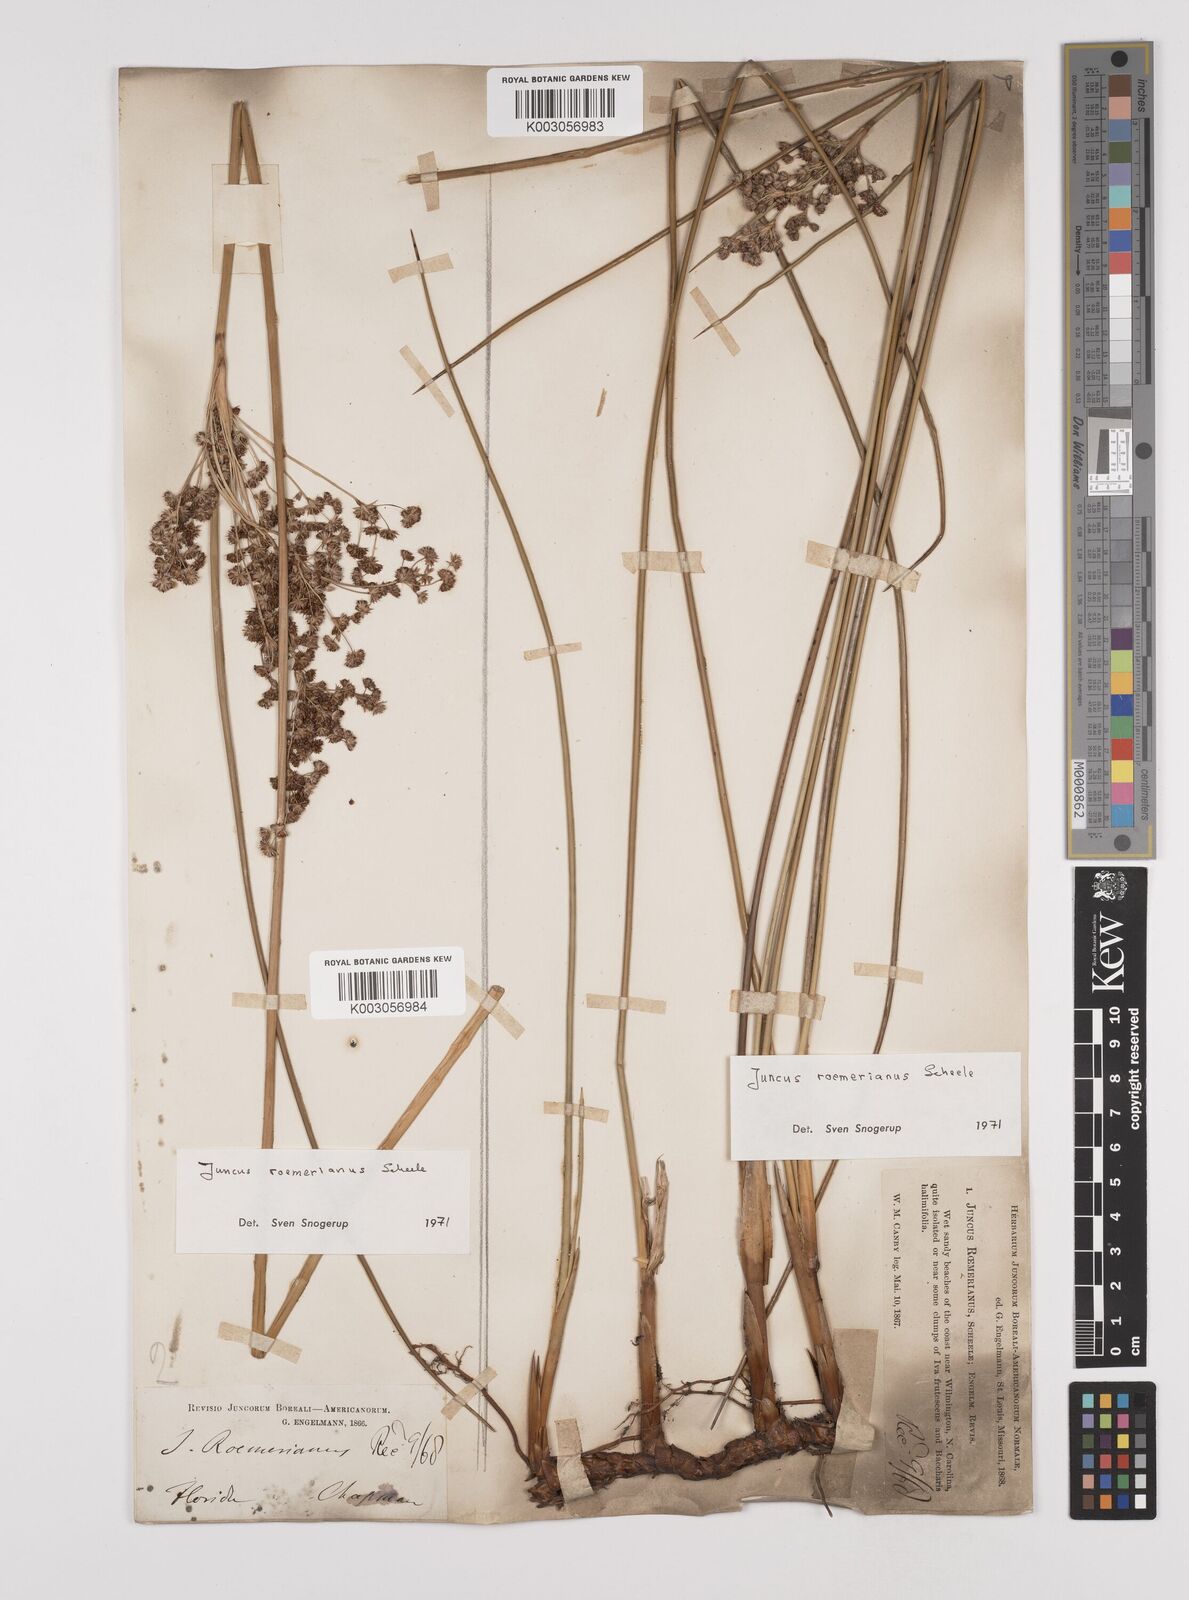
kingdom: Plantae
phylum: Tracheophyta
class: Liliopsida
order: Poales
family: Juncaceae
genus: Juncus
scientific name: Juncus roemerianus
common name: Roemer's rush
